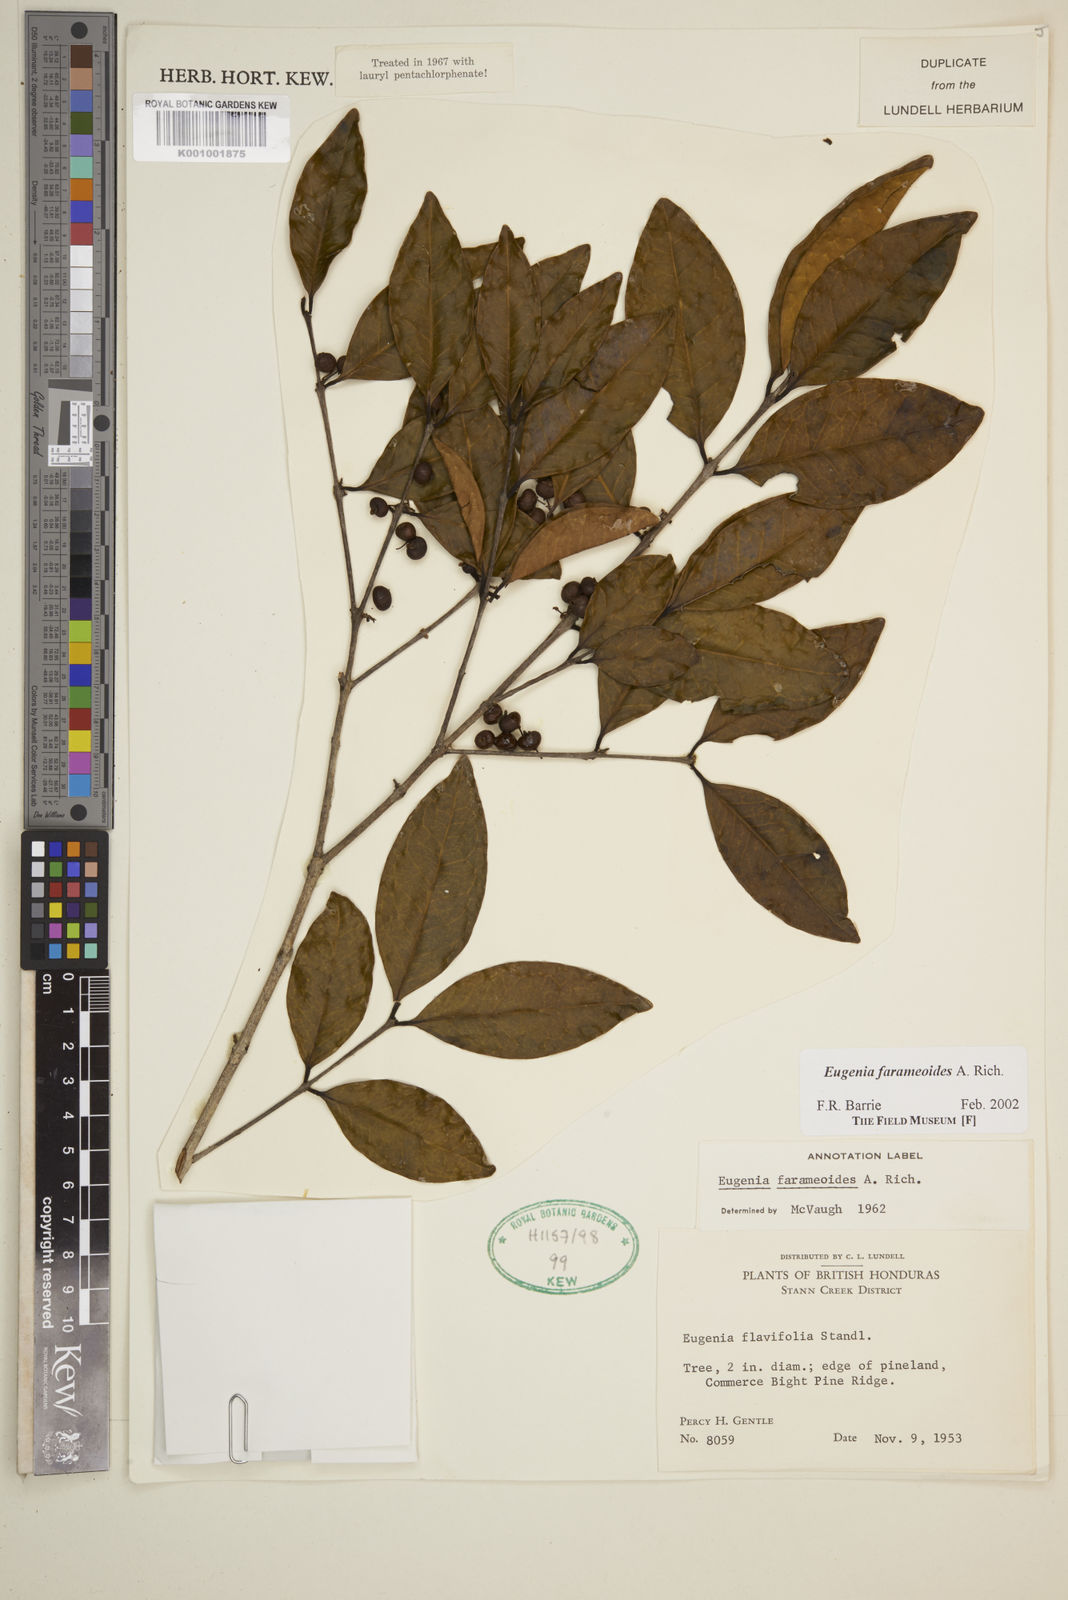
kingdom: Plantae
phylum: Tracheophyta
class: Magnoliopsida
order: Myrtales
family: Myrtaceae
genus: Eugenia
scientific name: Eugenia farameoides
